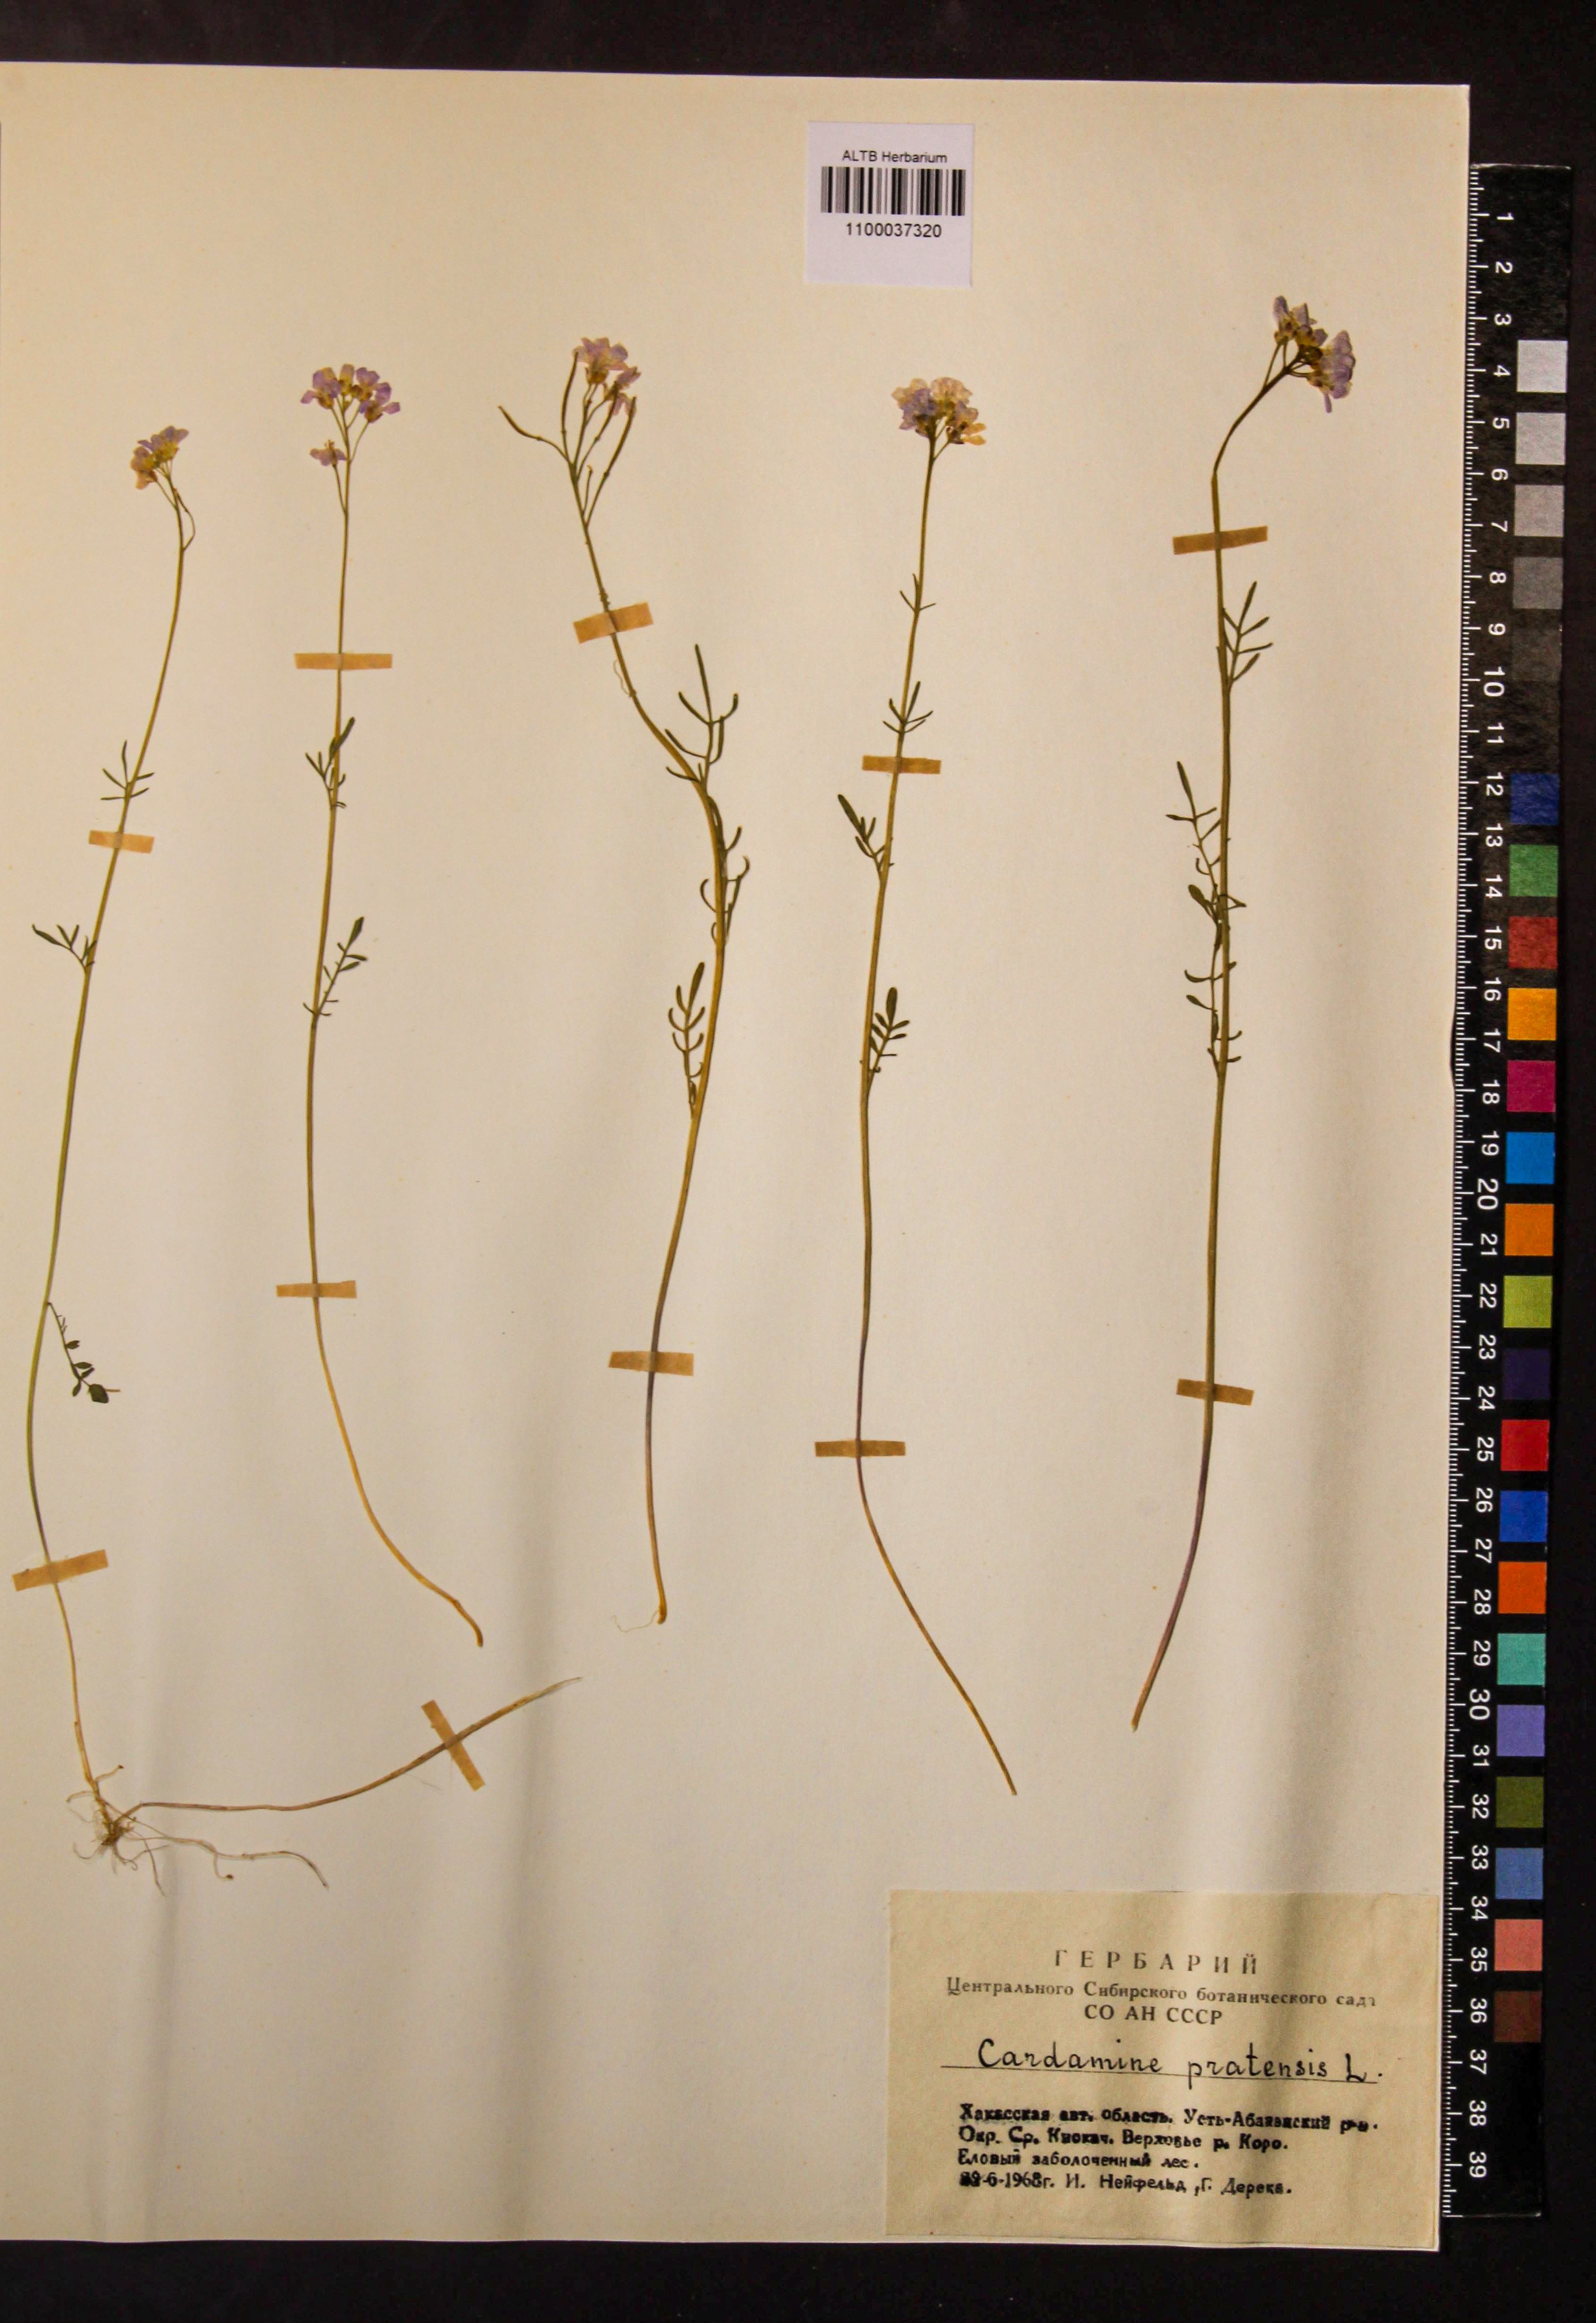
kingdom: Plantae
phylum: Tracheophyta
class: Magnoliopsida
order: Brassicales
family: Brassicaceae
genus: Cardamine
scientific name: Cardamine pratensis
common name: Cuckoo flower
